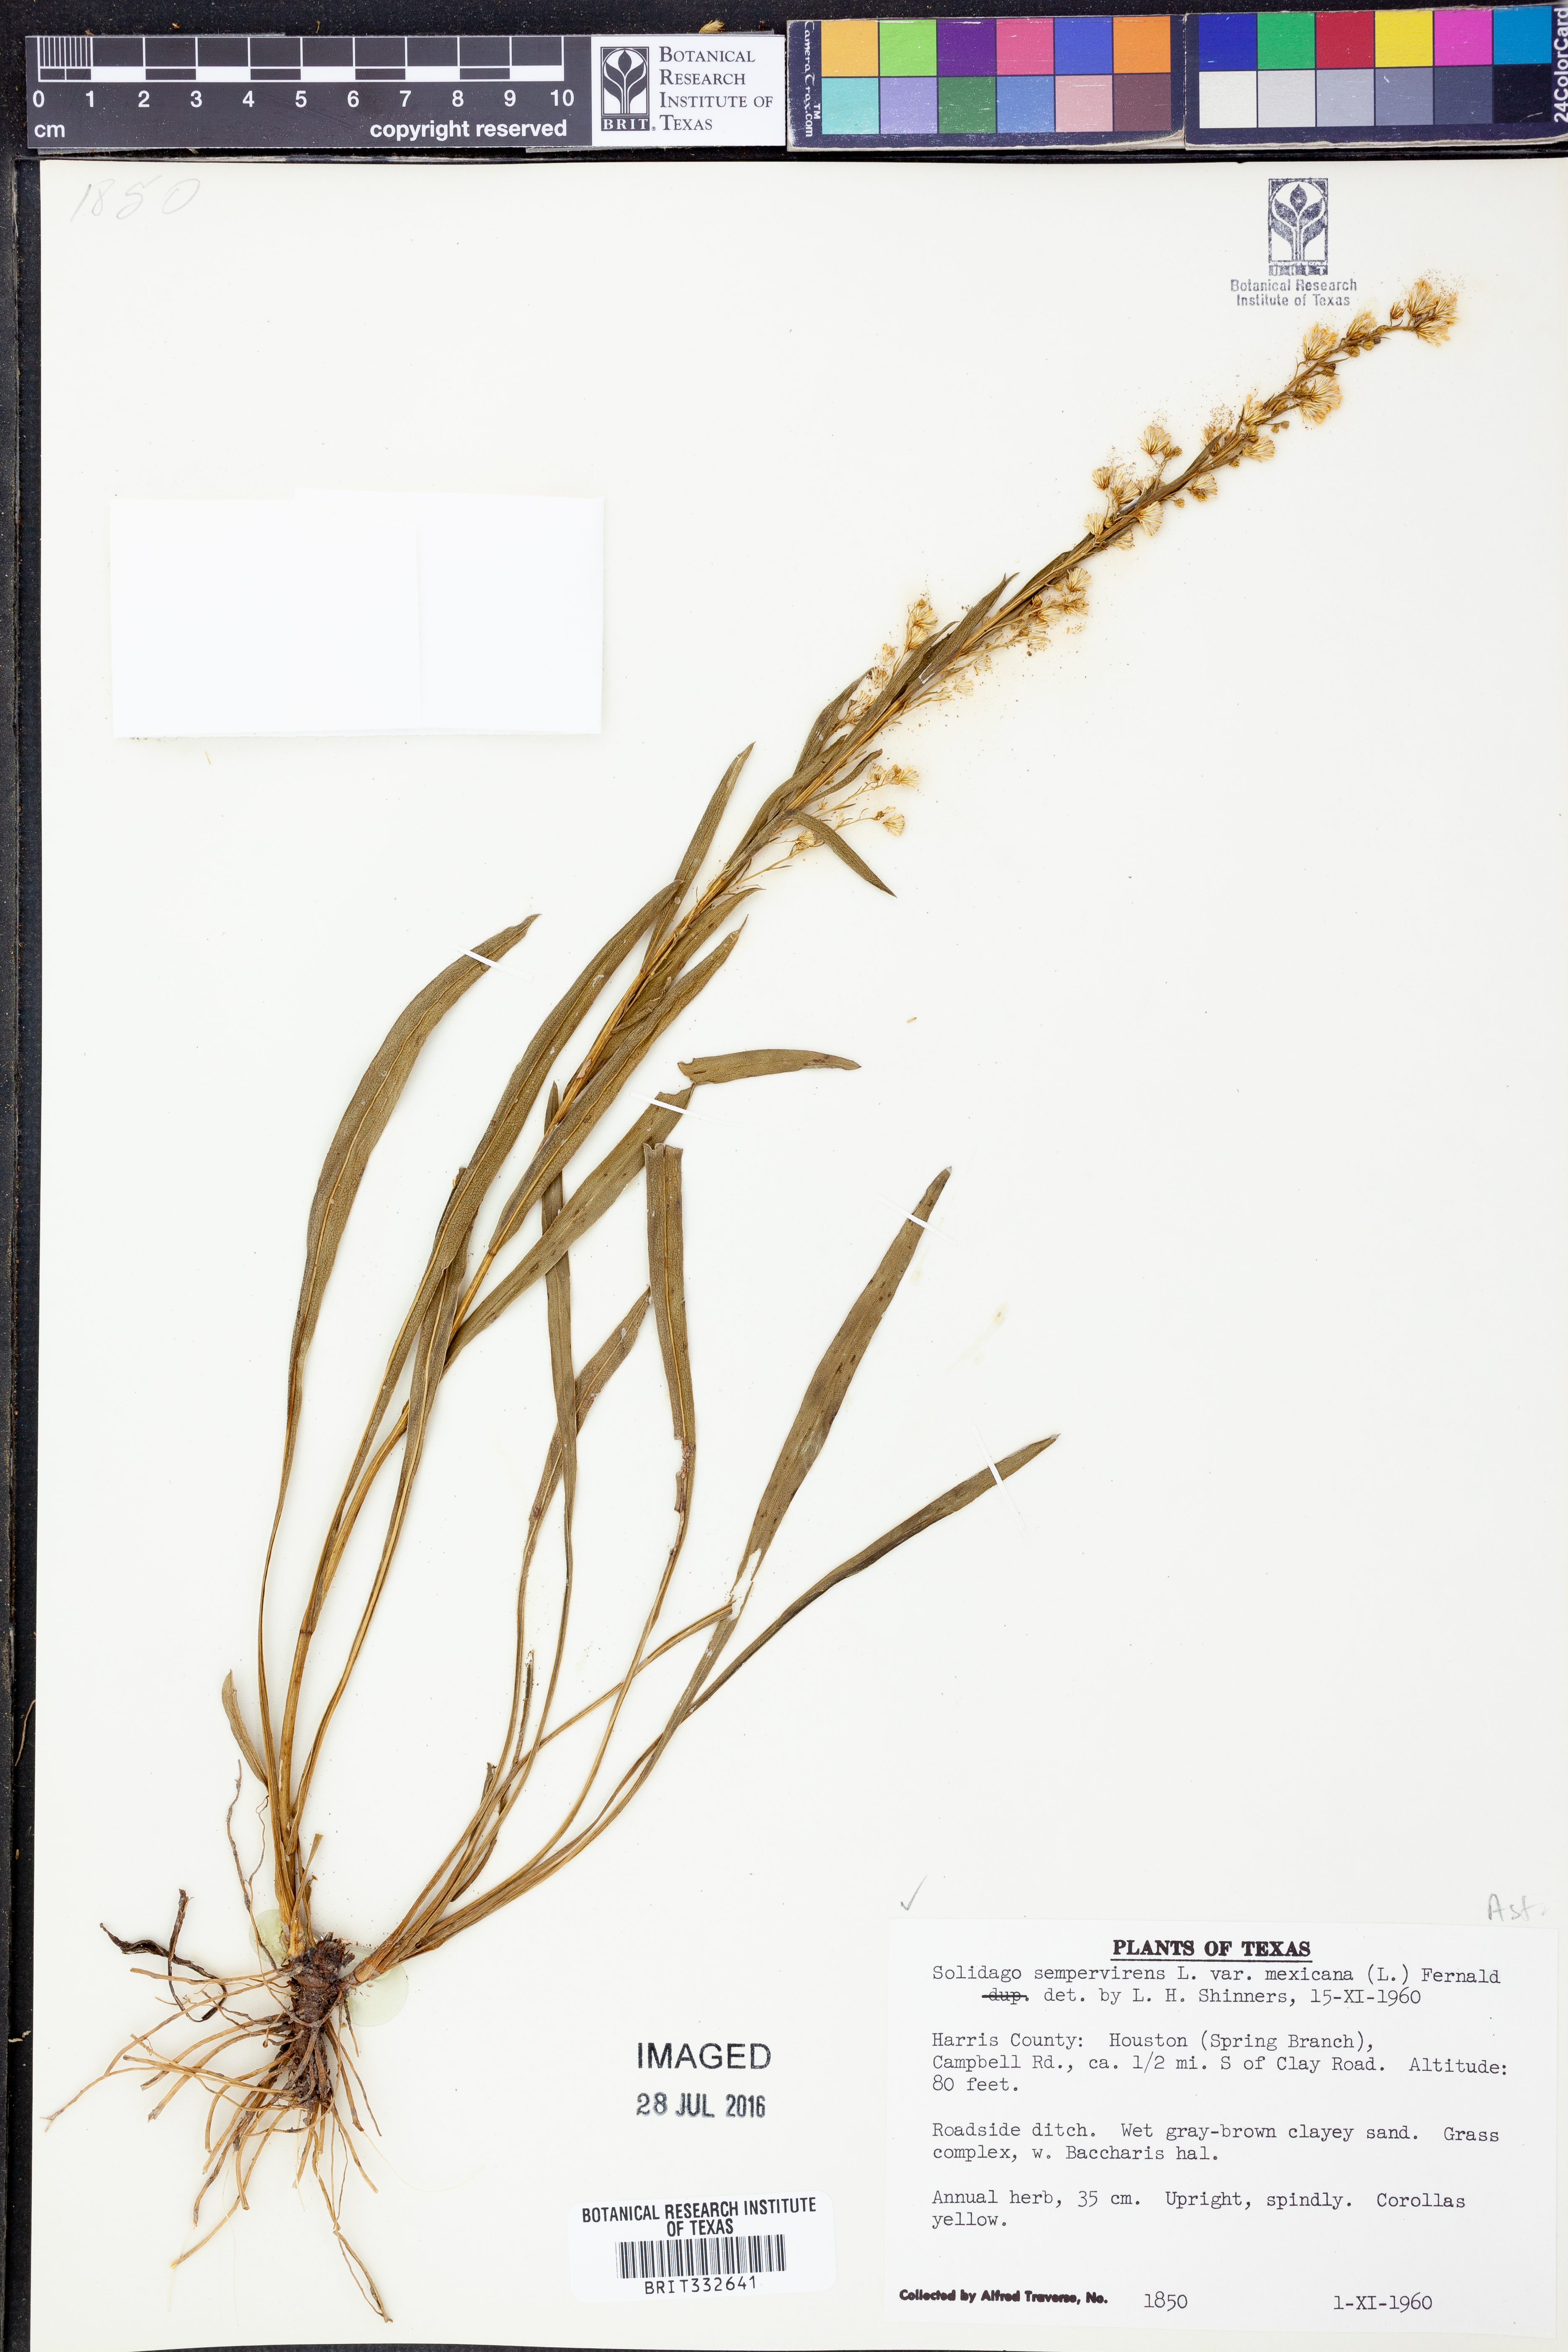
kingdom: Plantae
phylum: Tracheophyta
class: Magnoliopsida
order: Asterales
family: Asteraceae
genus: Solidago
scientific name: Solidago mexicana
